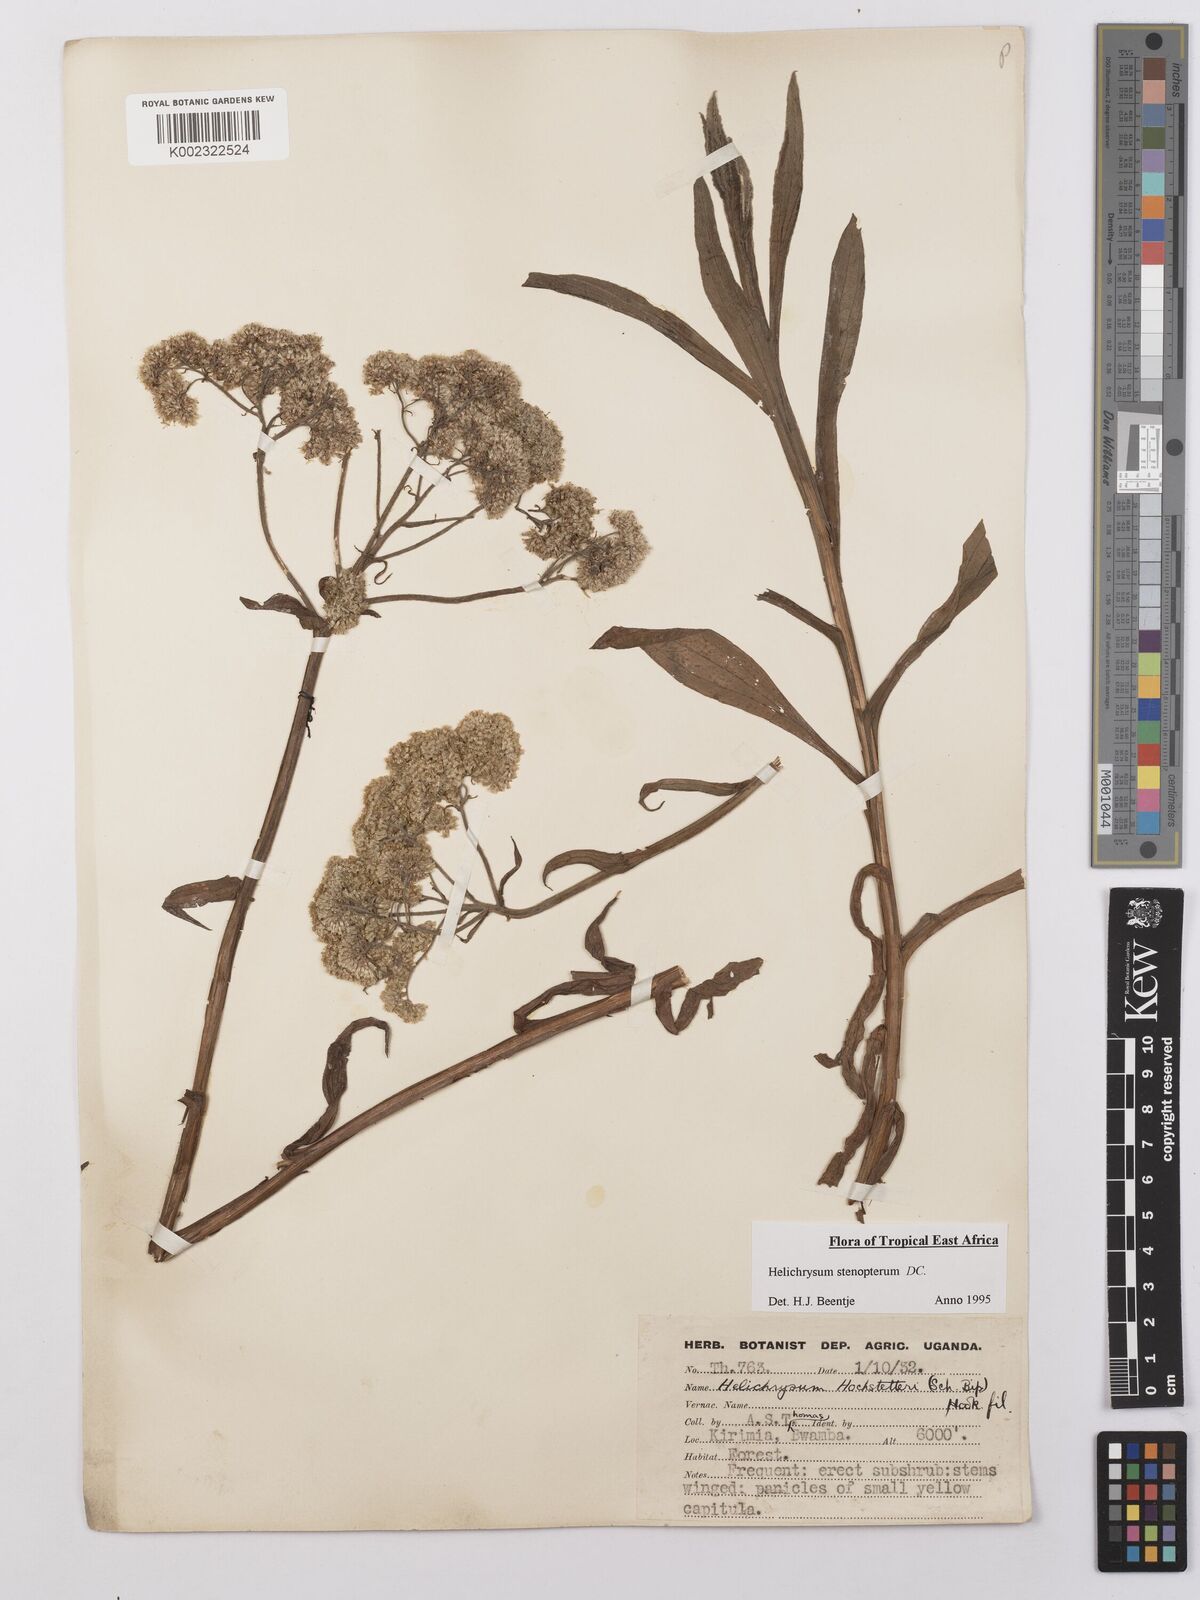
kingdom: Plantae
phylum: Tracheophyta
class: Magnoliopsida
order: Asterales
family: Asteraceae
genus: Helichrysum
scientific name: Helichrysum stenopterum
